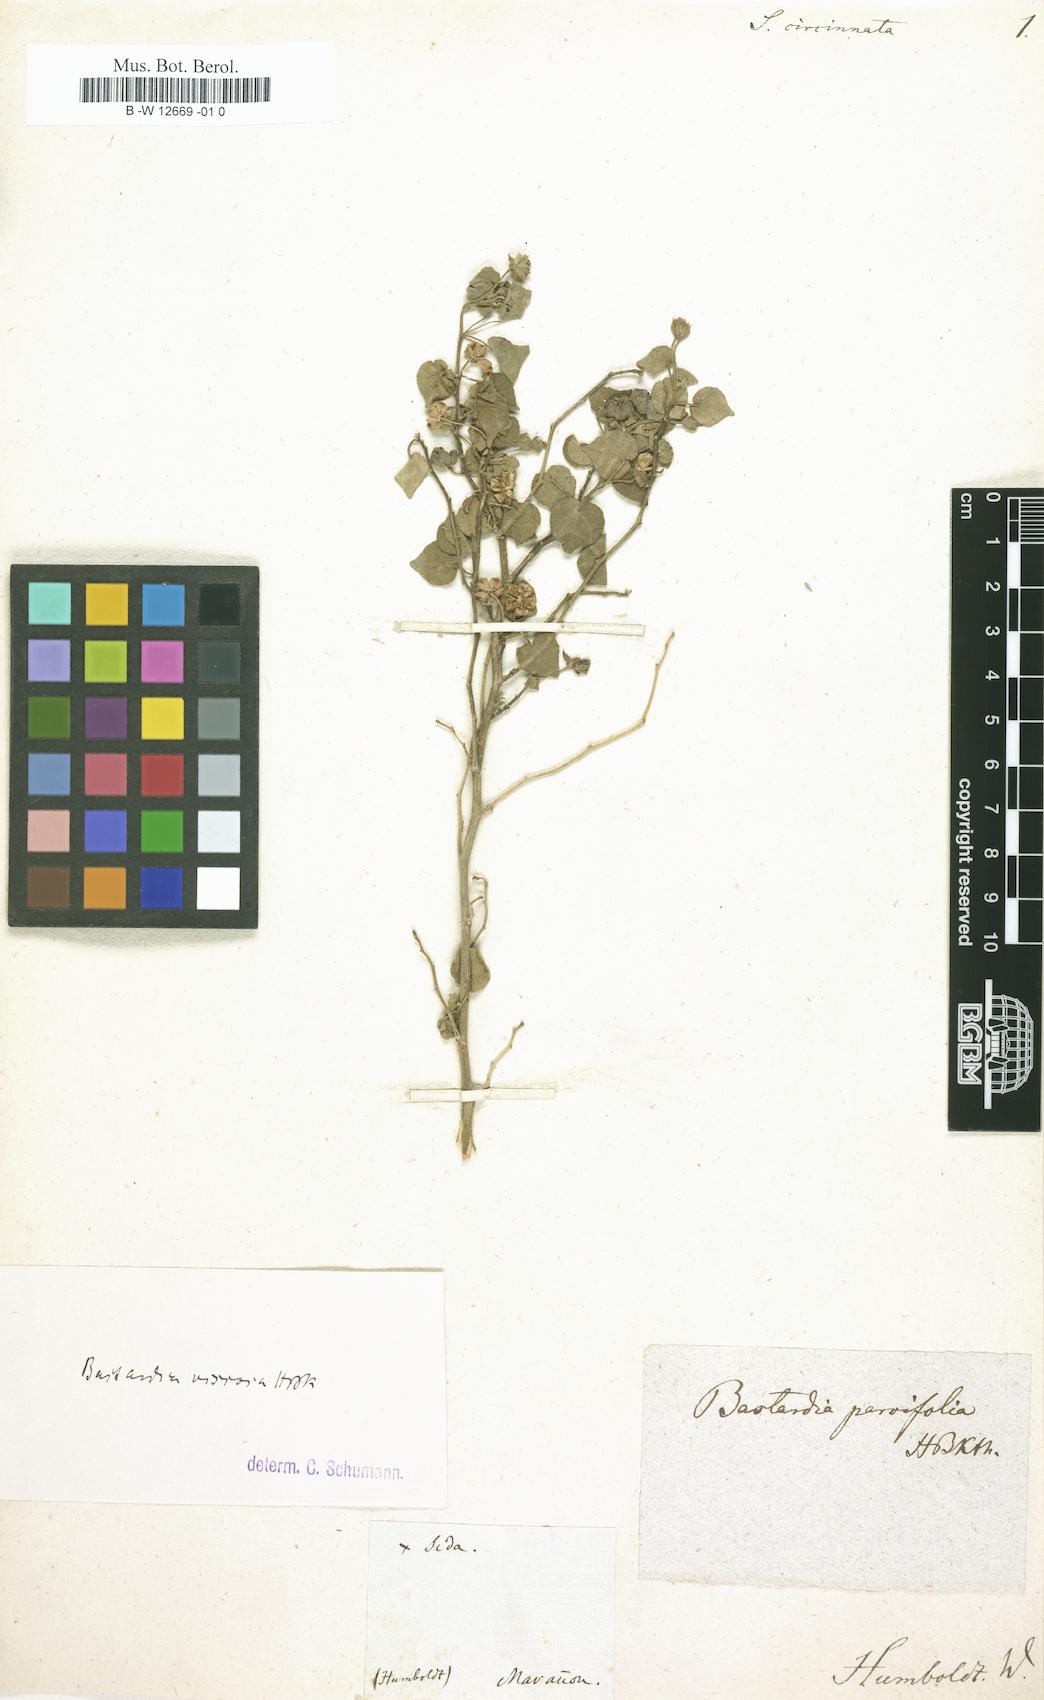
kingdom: Plantae
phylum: Tracheophyta
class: Magnoliopsida
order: Malvales
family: Malvaceae
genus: Abutilon
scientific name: Abutilon viscosum
